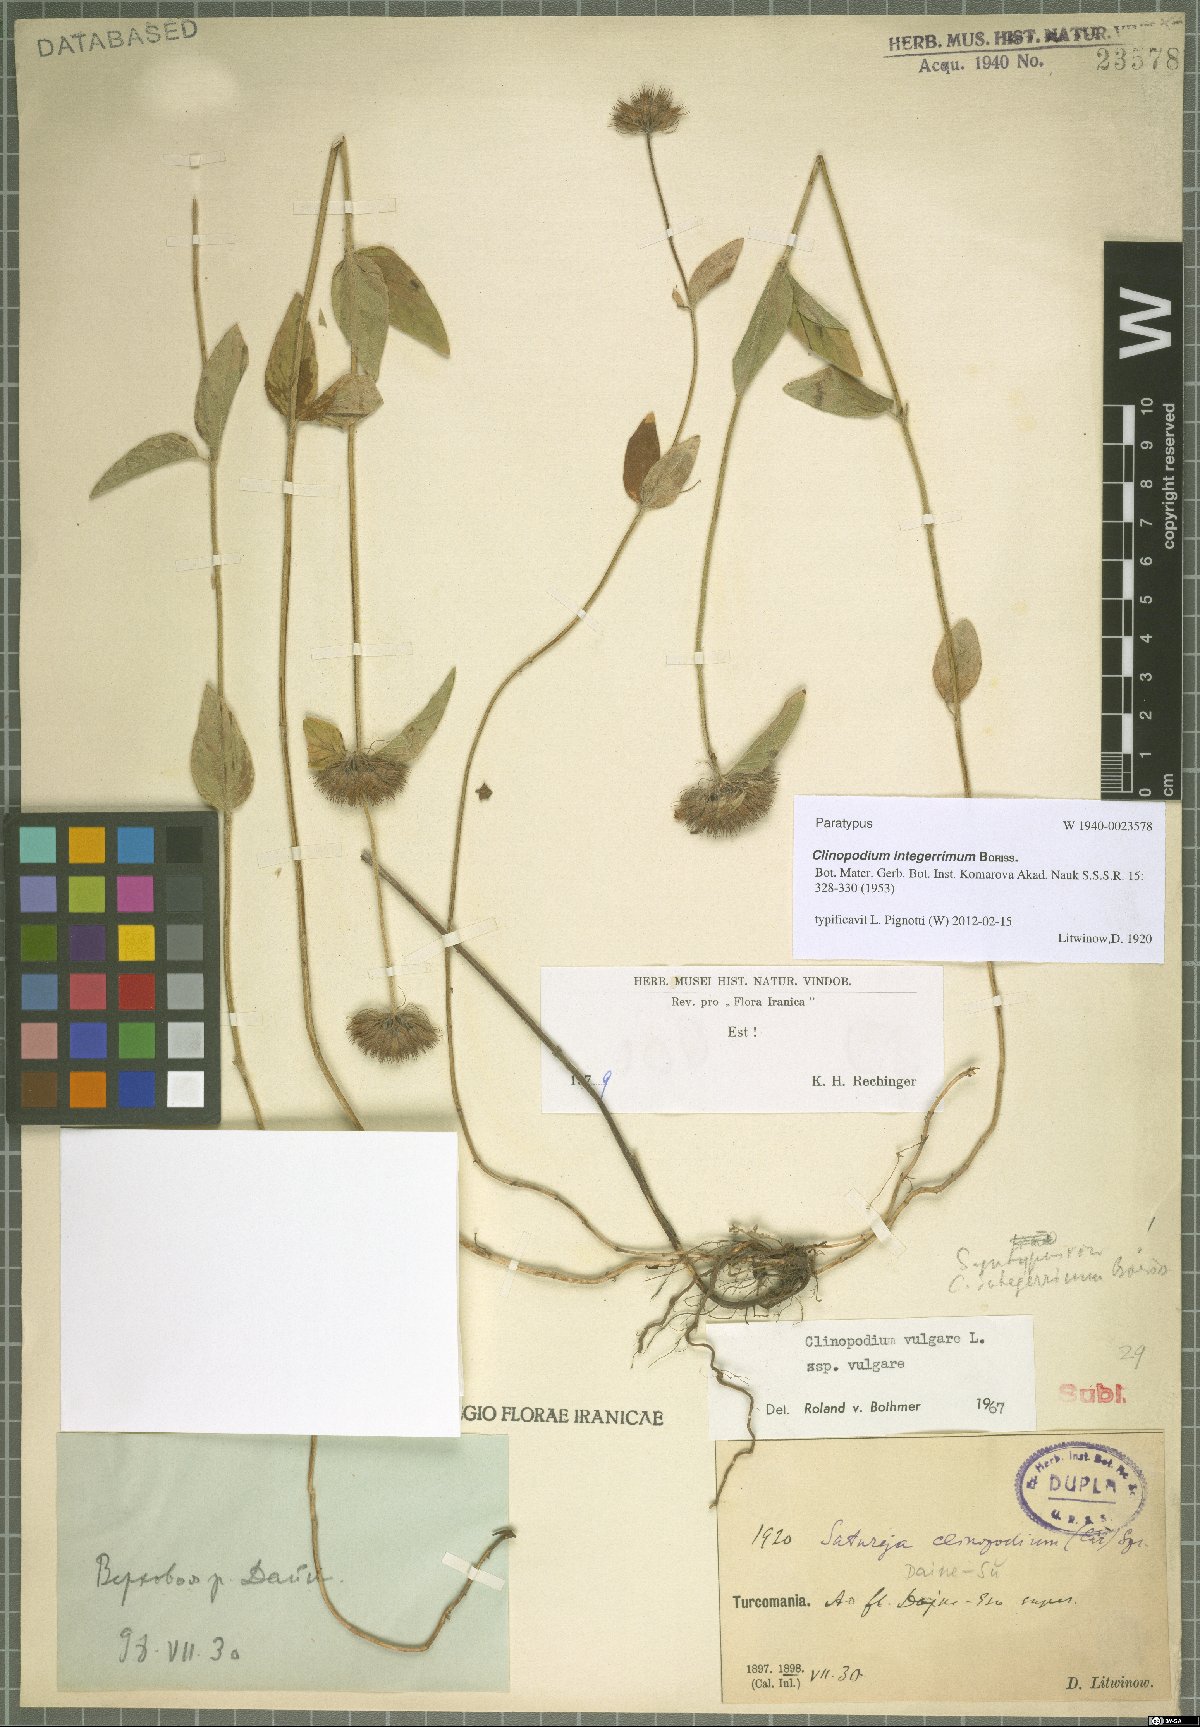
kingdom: Plantae
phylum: Tracheophyta
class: Magnoliopsida
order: Lamiales
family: Lamiaceae
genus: Clinopodium
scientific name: Clinopodium integerrimum
